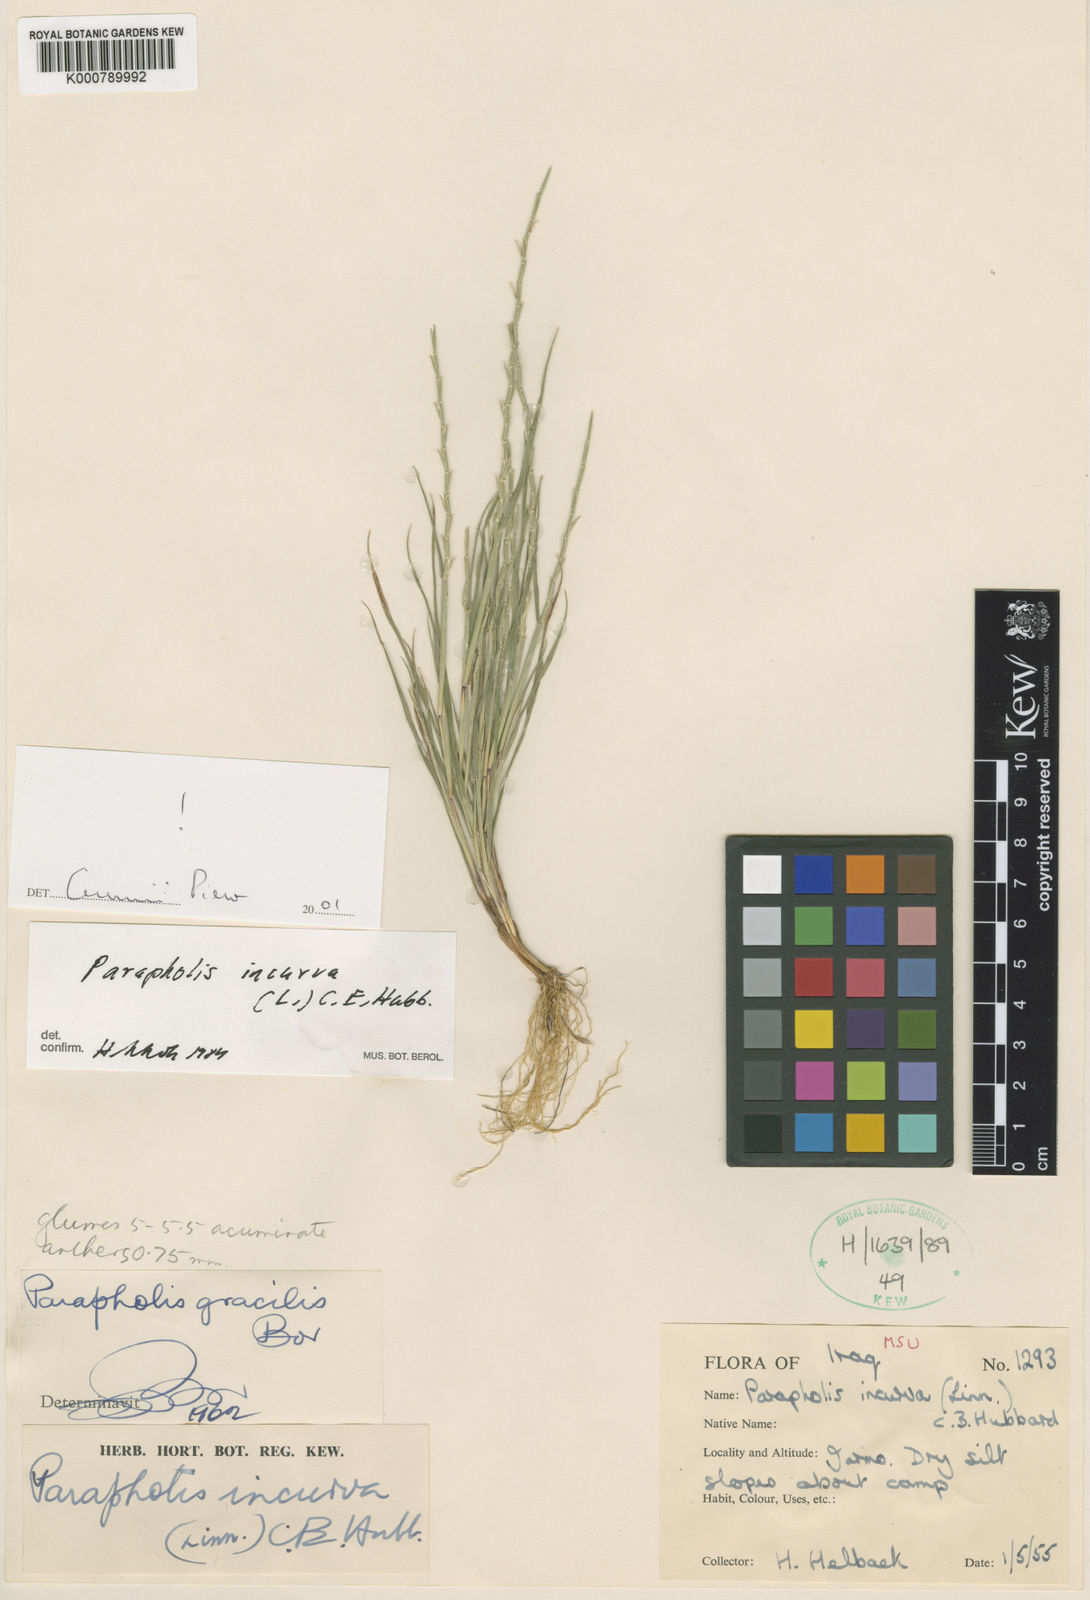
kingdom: Plantae
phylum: Tracheophyta
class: Liliopsida
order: Poales
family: Poaceae
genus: Parapholis
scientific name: Parapholis incurva
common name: Curved sicklegrass
